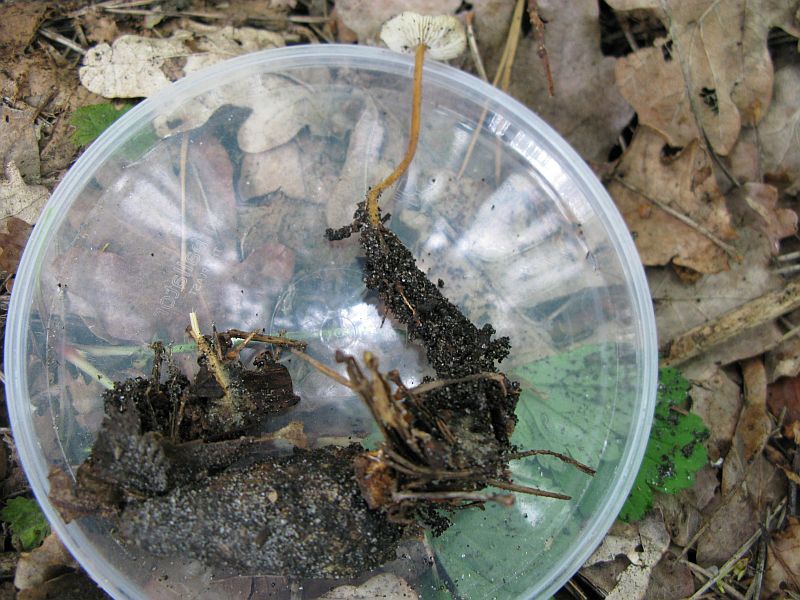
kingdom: Fungi
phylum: Basidiomycota
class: Agaricomycetes
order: Agaricales
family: Physalacriaceae
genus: Strobilurus
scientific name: Strobilurus tenacellus
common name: sommer-koglehat
